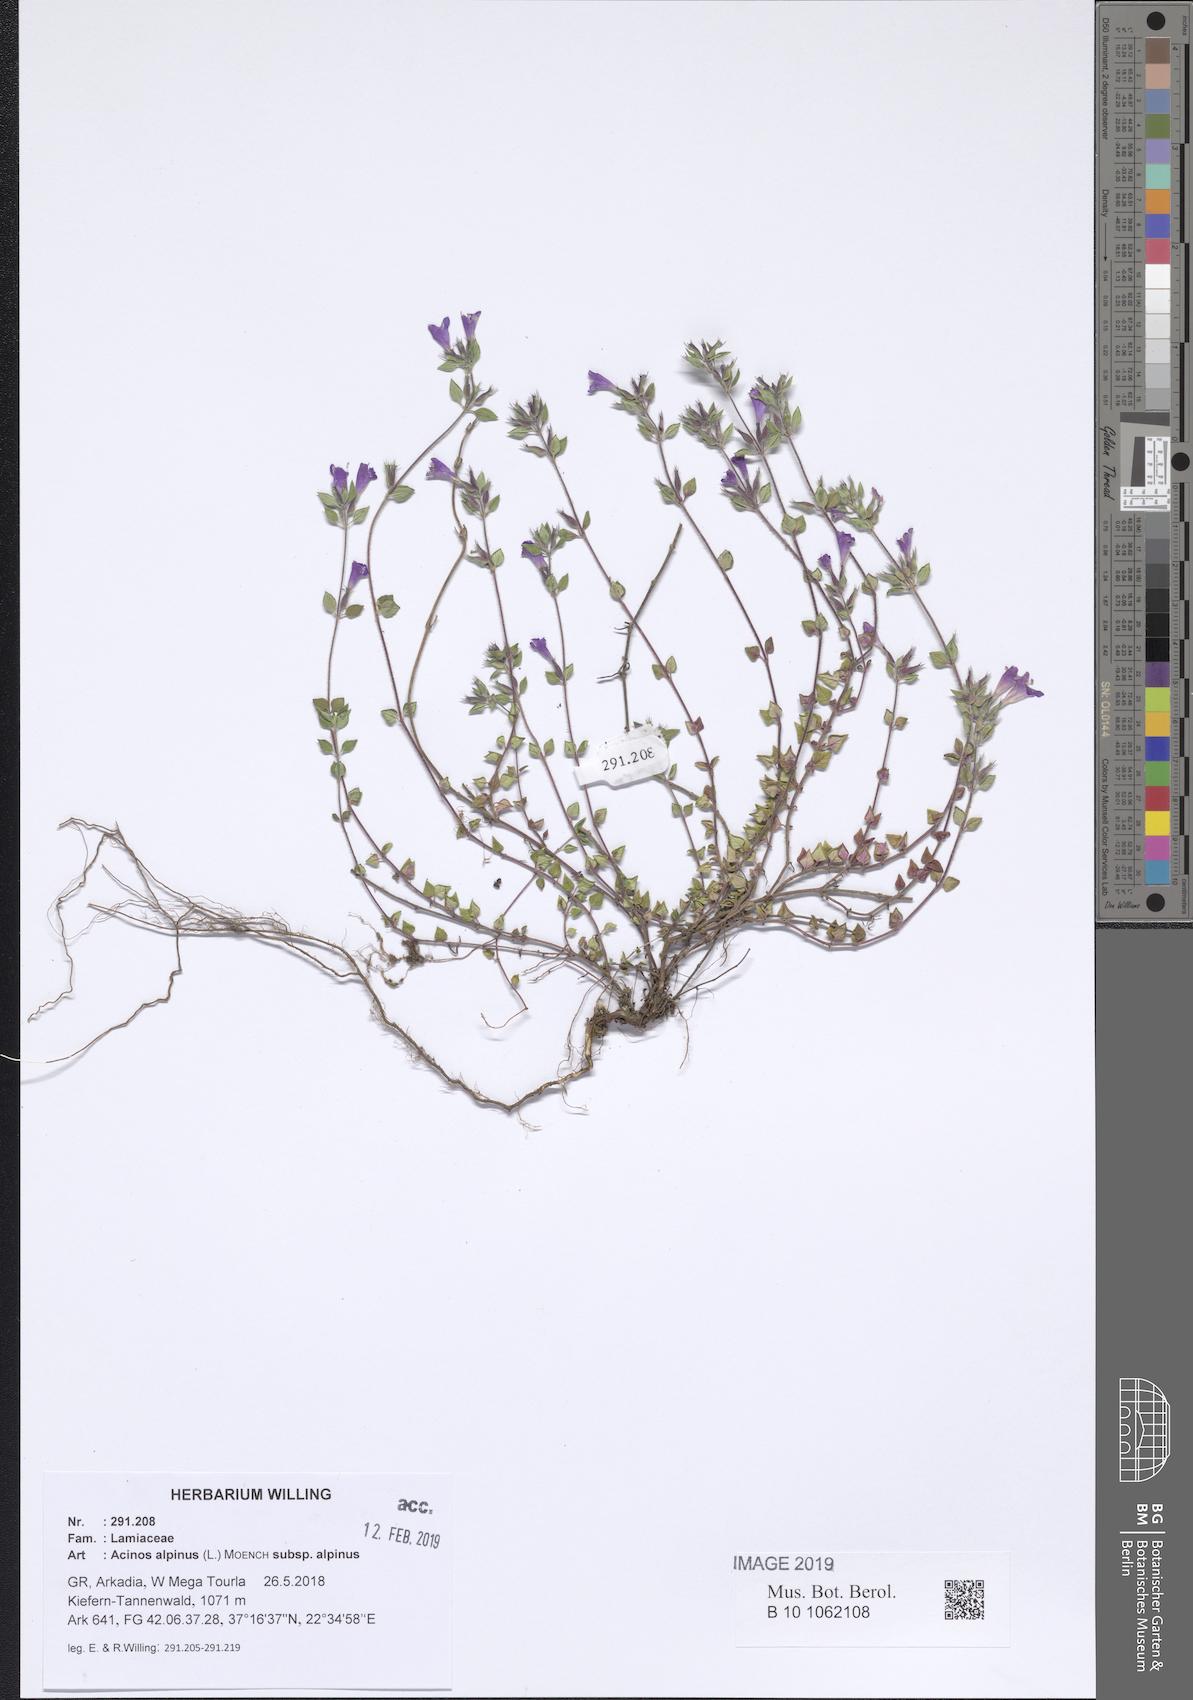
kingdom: Plantae
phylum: Tracheophyta
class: Magnoliopsida
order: Lamiales
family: Lamiaceae
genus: Clinopodium
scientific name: Clinopodium alpinum
